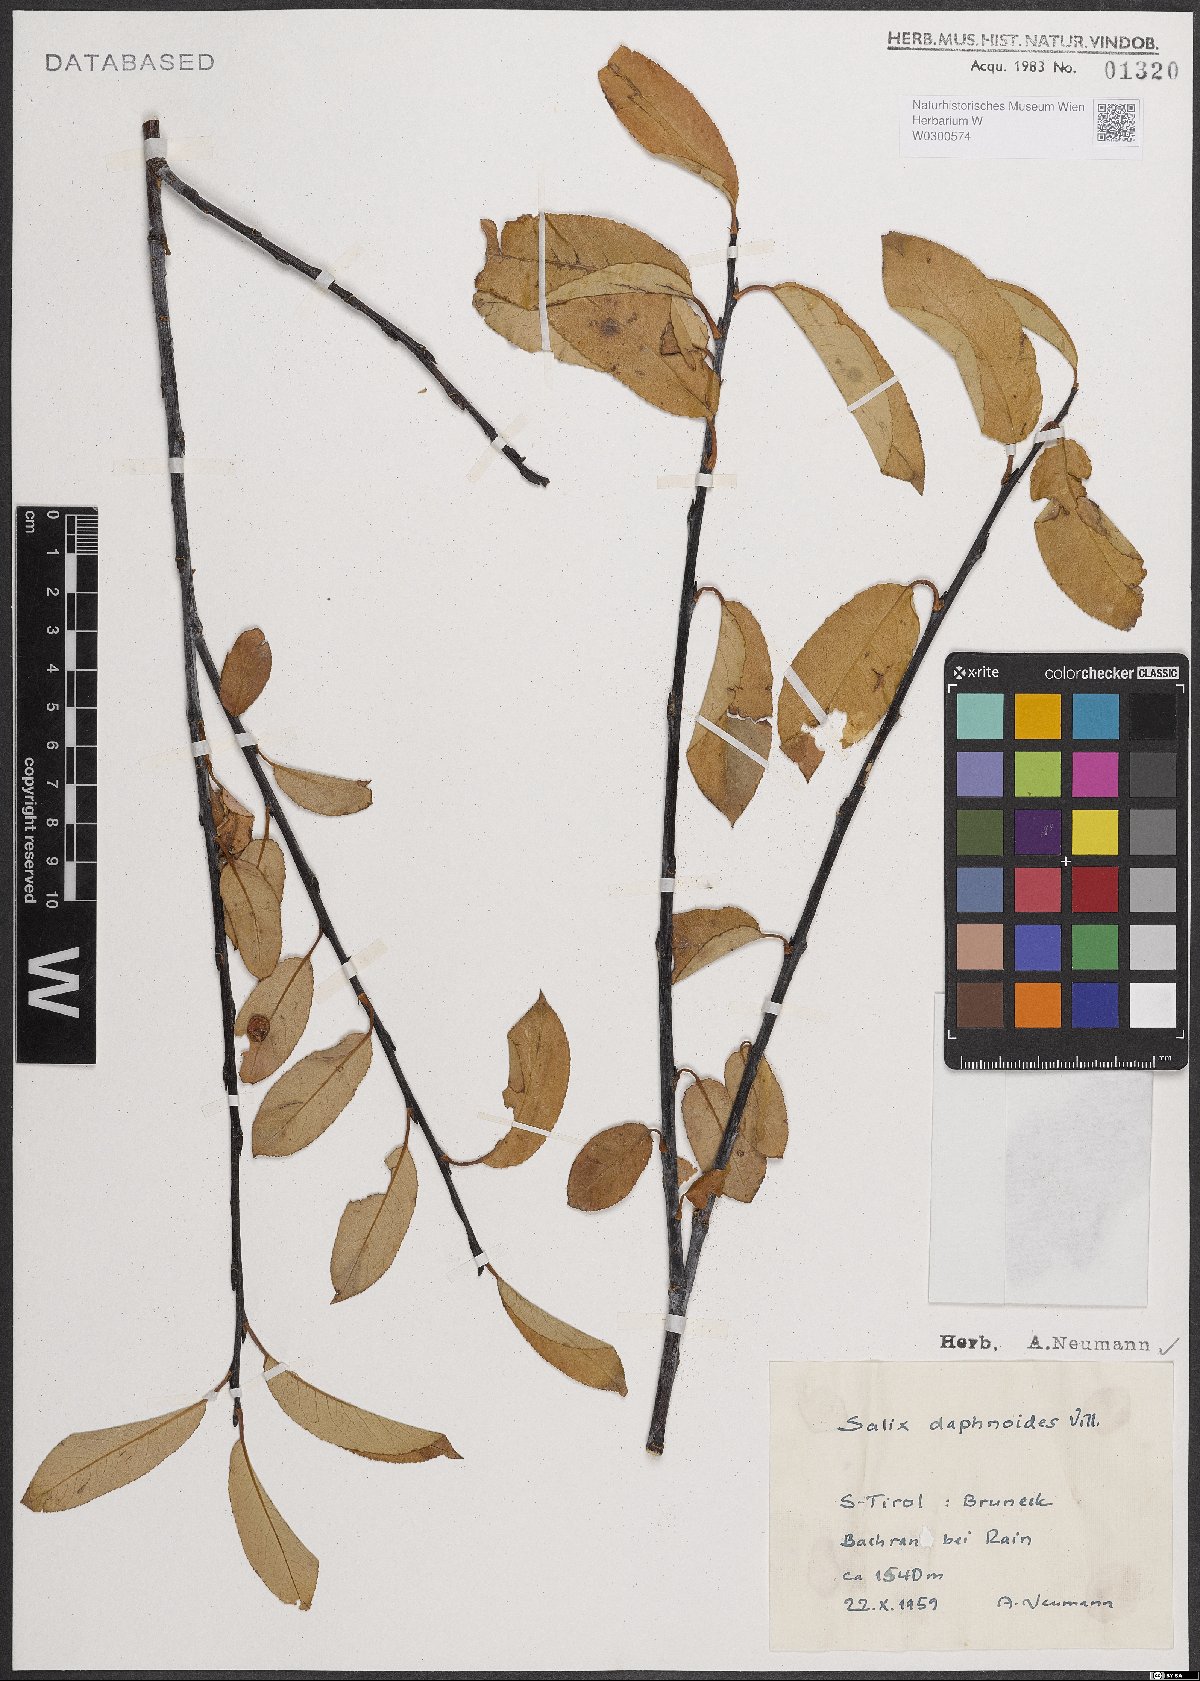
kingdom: Plantae
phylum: Tracheophyta
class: Magnoliopsida
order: Malpighiales
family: Salicaceae
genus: Salix
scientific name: Salix daphnoides
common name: European violet-willow
